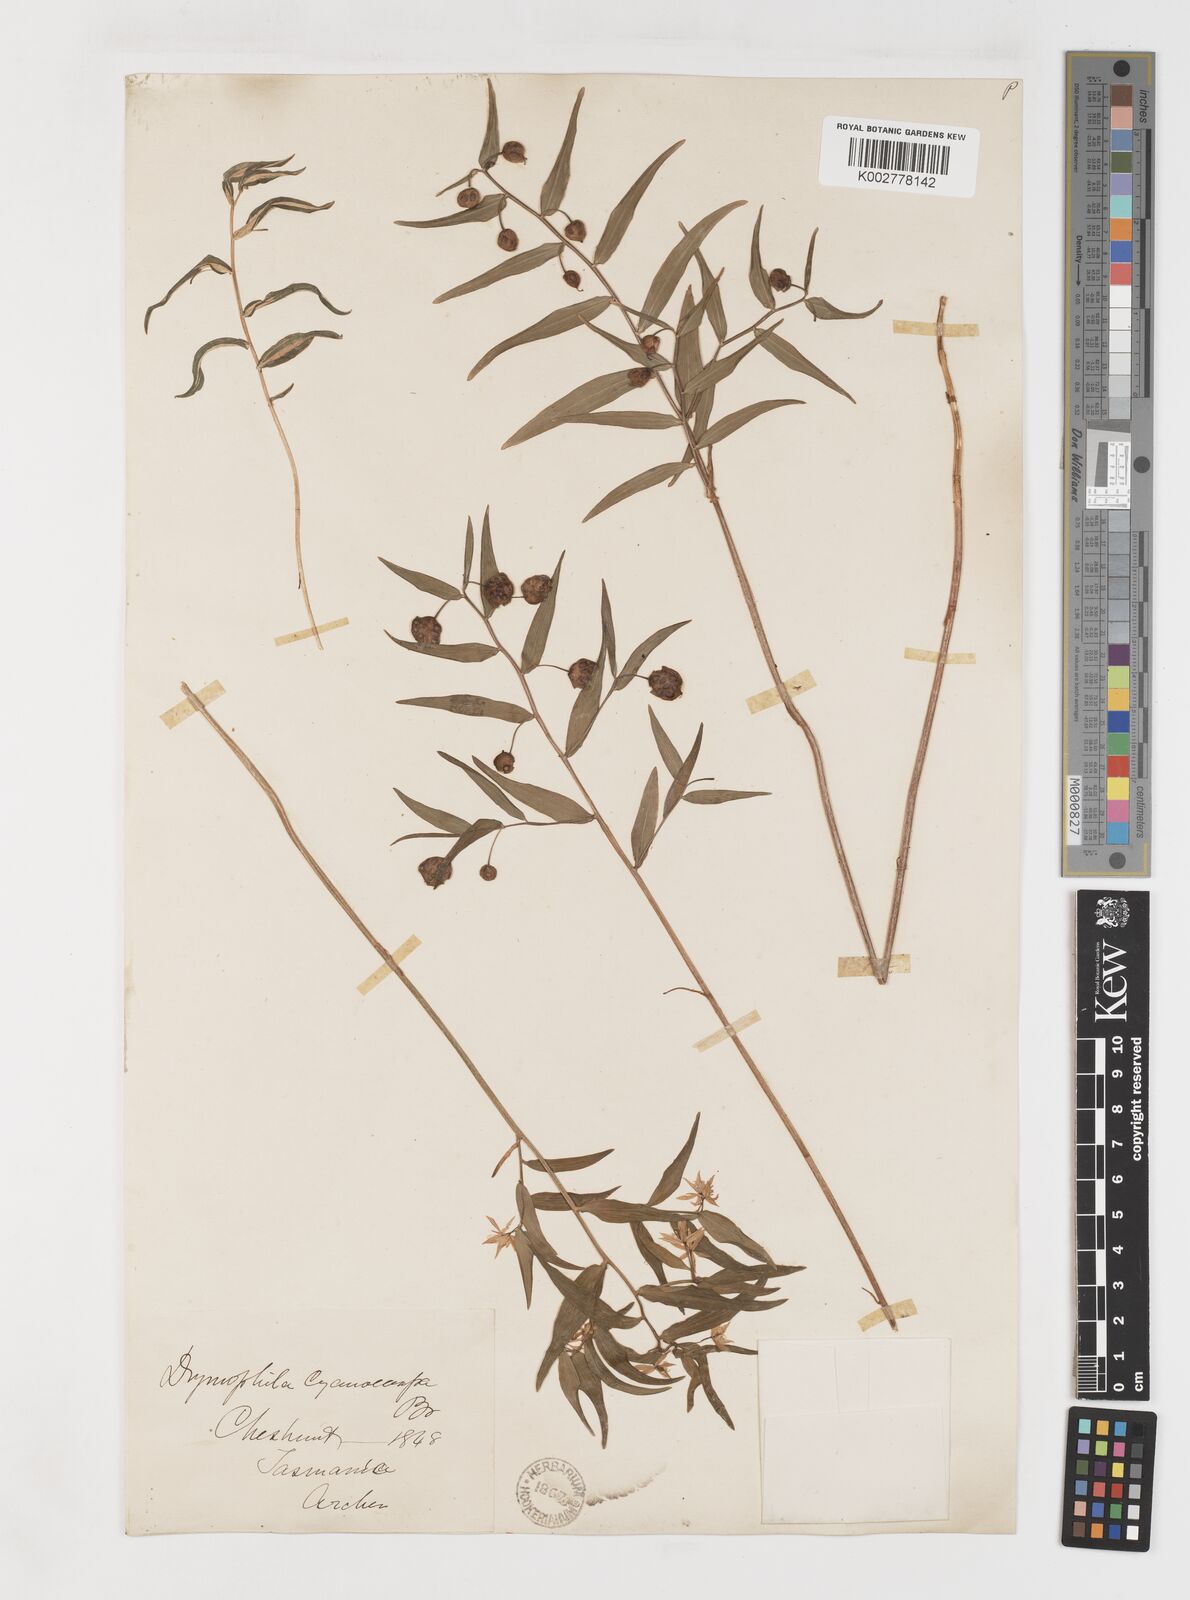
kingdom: Plantae
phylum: Tracheophyta
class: Liliopsida
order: Liliales
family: Alstroemeriaceae
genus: Drymophila
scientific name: Drymophila cyanocarpa
